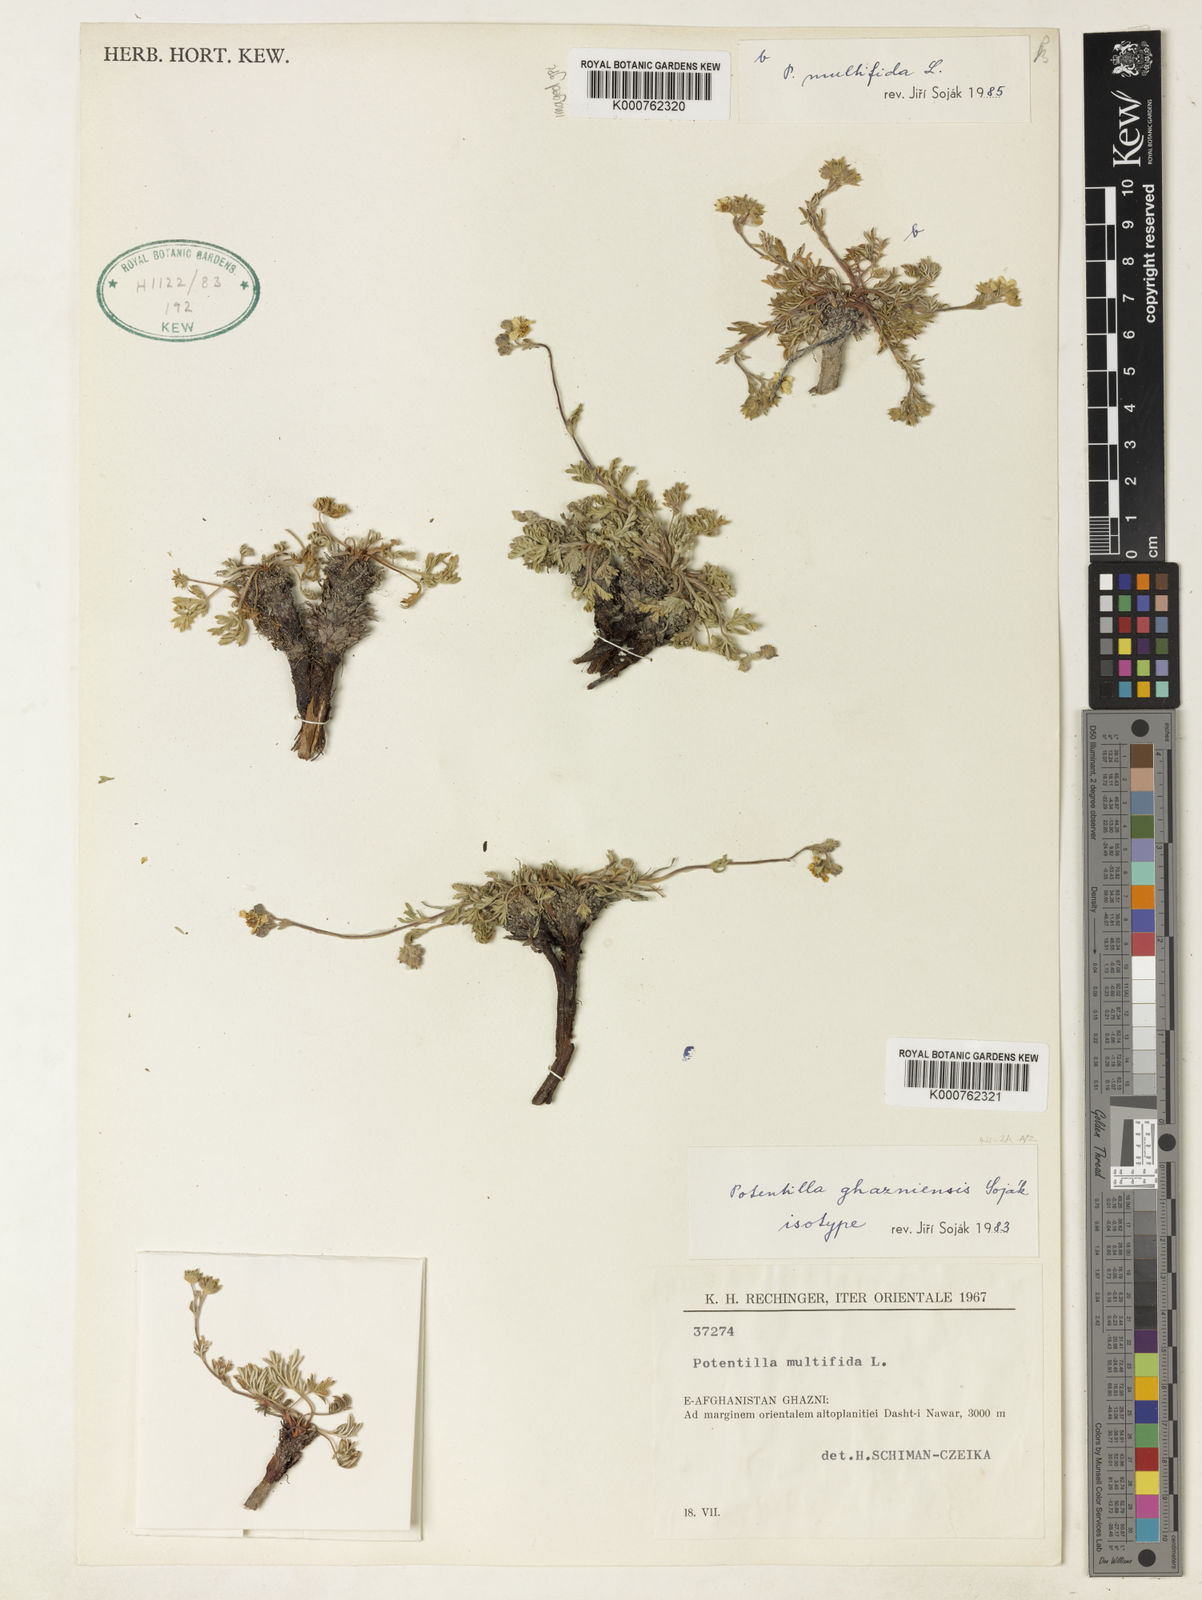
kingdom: Plantae
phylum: Tracheophyta
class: Magnoliopsida
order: Rosales
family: Rosaceae
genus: Potentilla
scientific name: Potentilla
